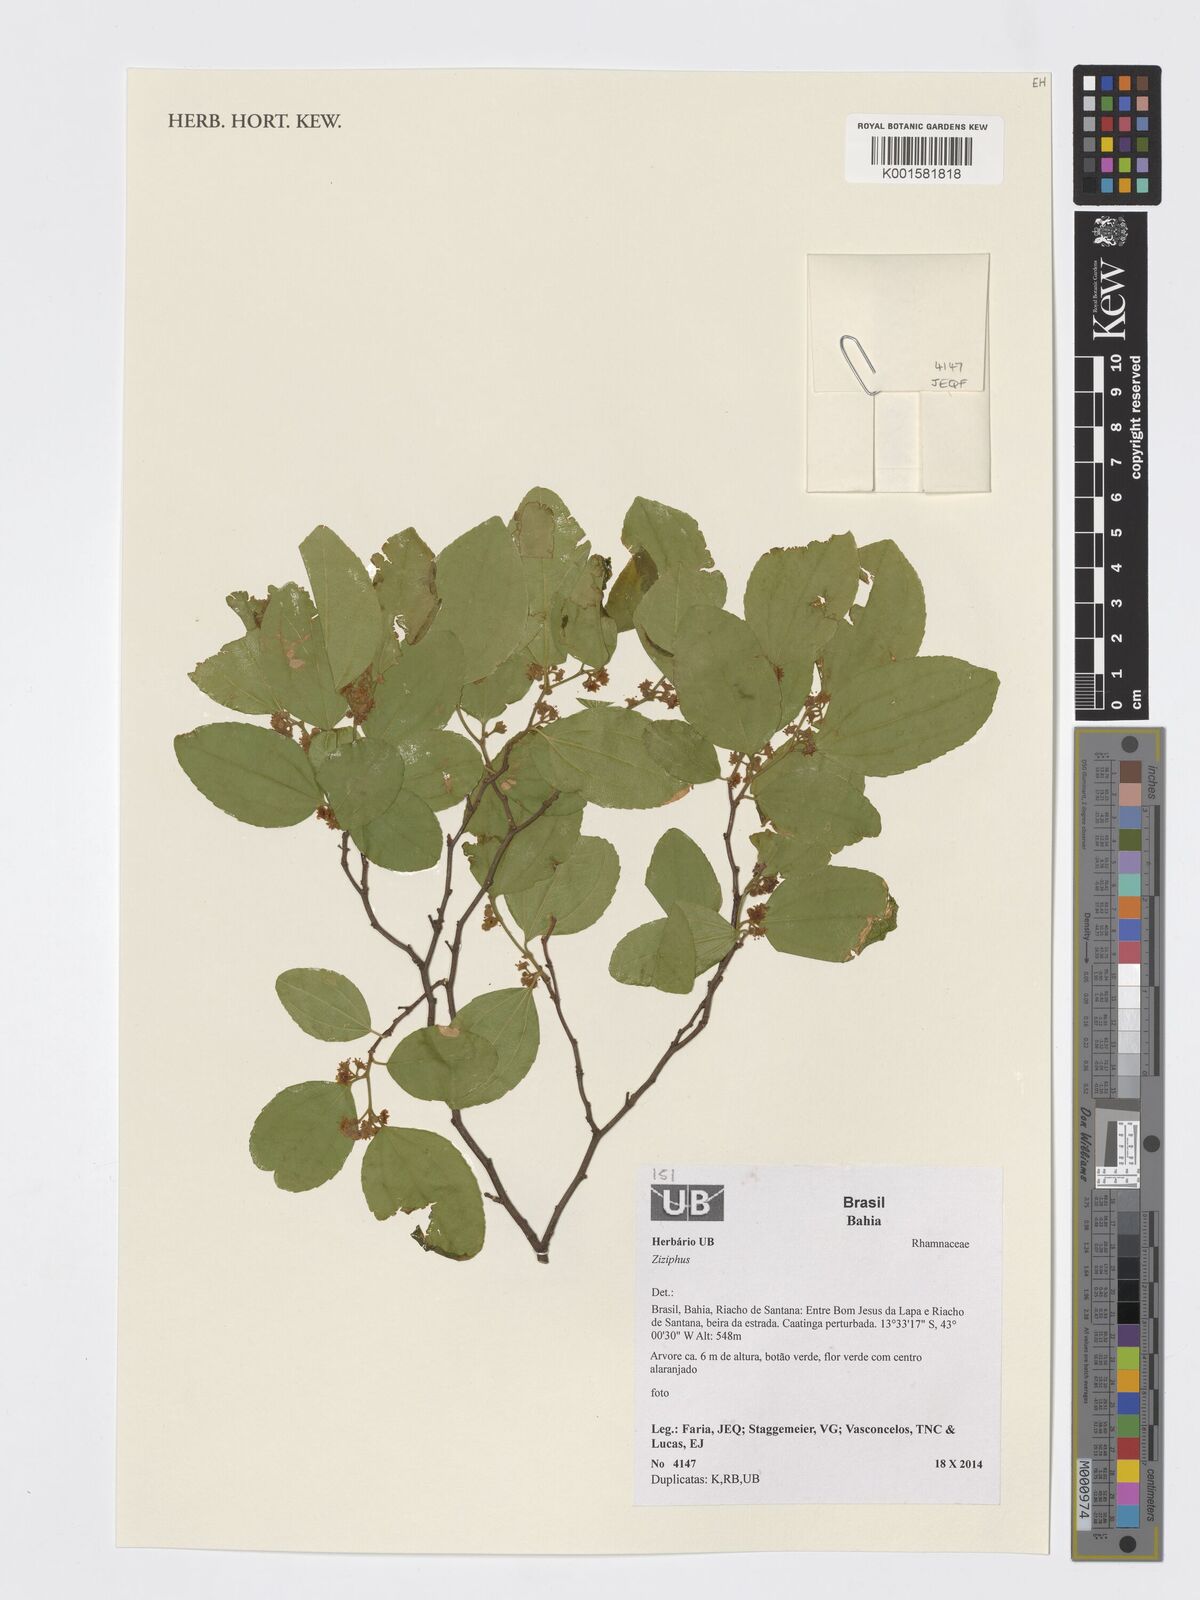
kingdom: Plantae
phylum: Tracheophyta
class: Magnoliopsida
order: Rosales
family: Rhamnaceae
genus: Ziziphus
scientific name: Ziziphus
